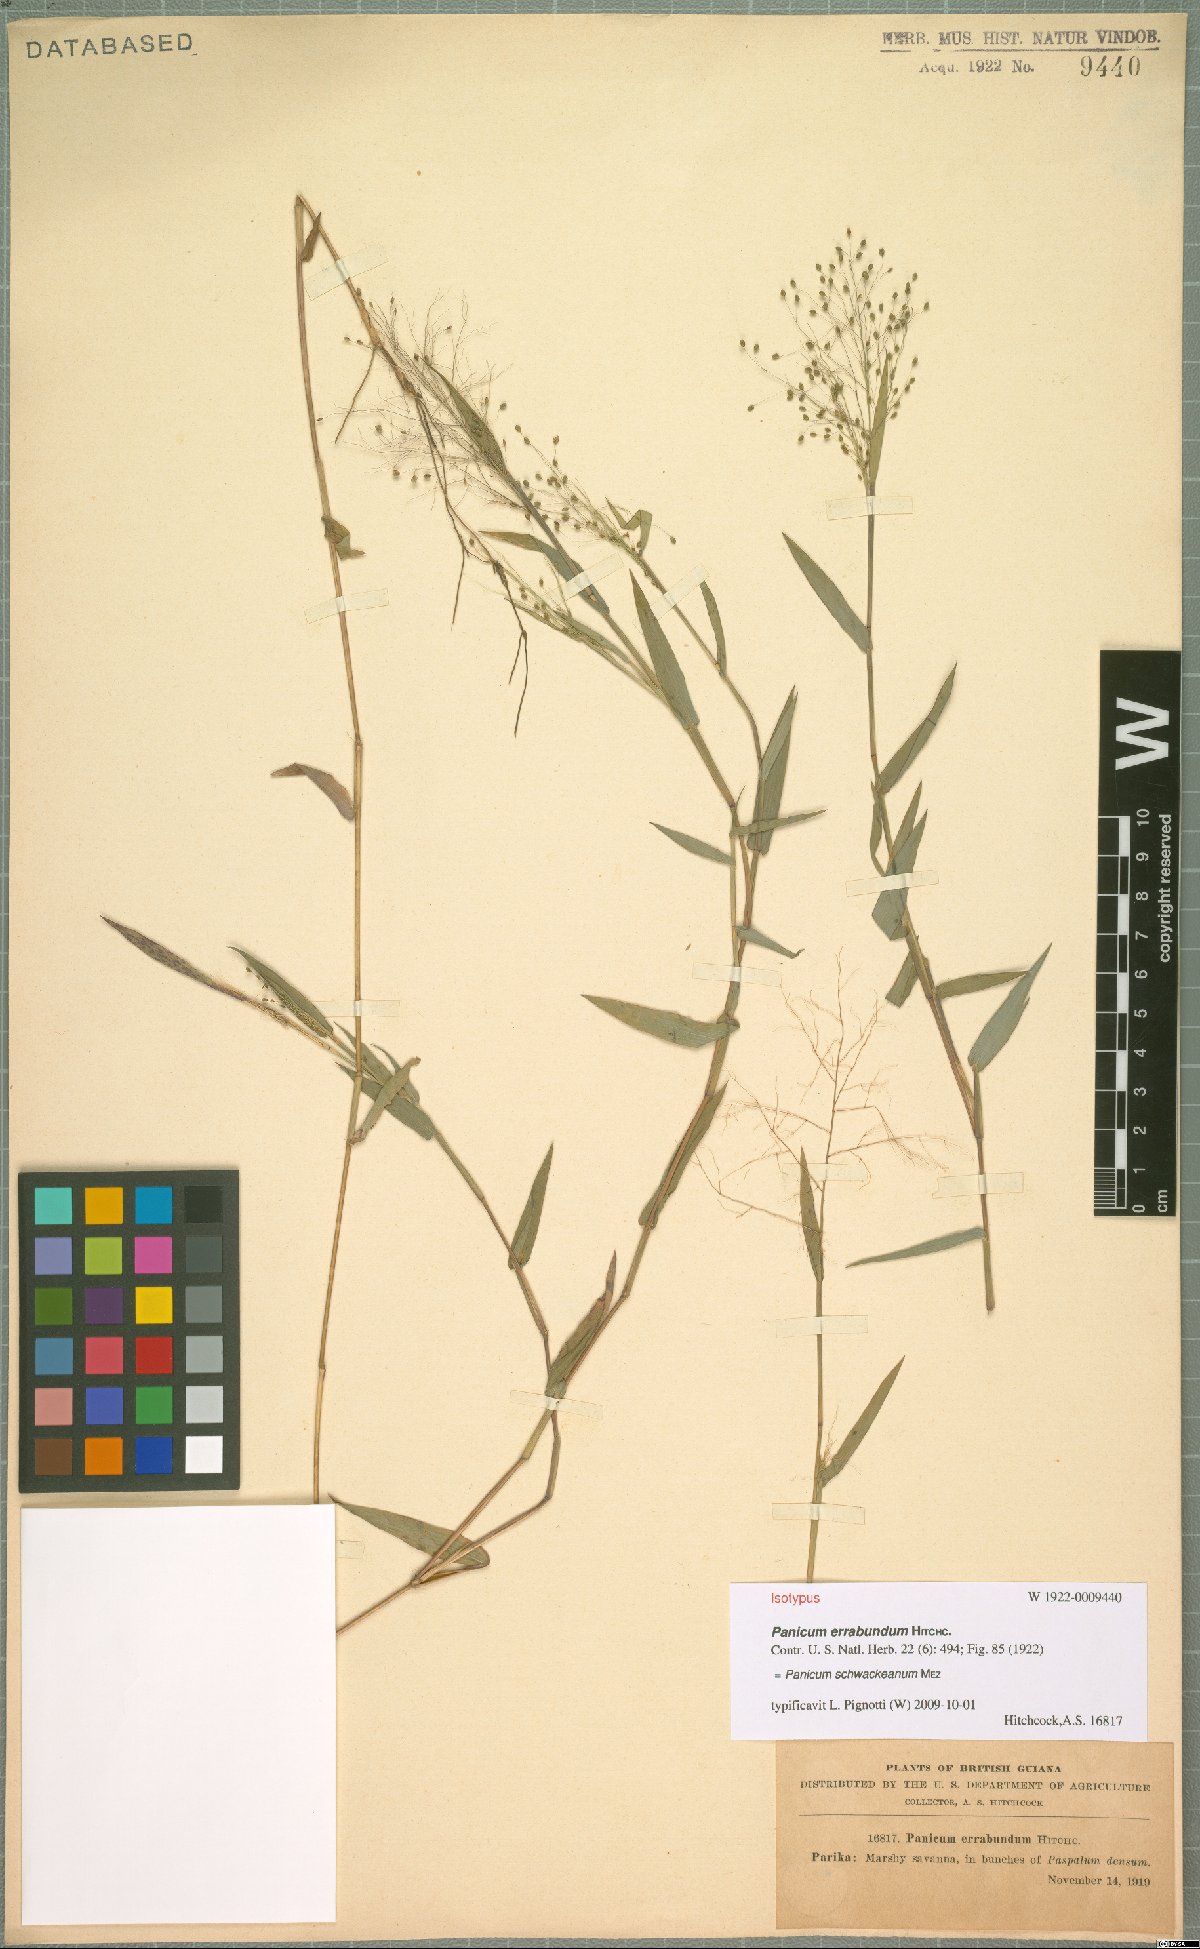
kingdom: Plantae
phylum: Tracheophyta
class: Liliopsida
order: Poales
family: Poaceae
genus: Trichanthecium
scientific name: Trichanthecium schwackeanum
